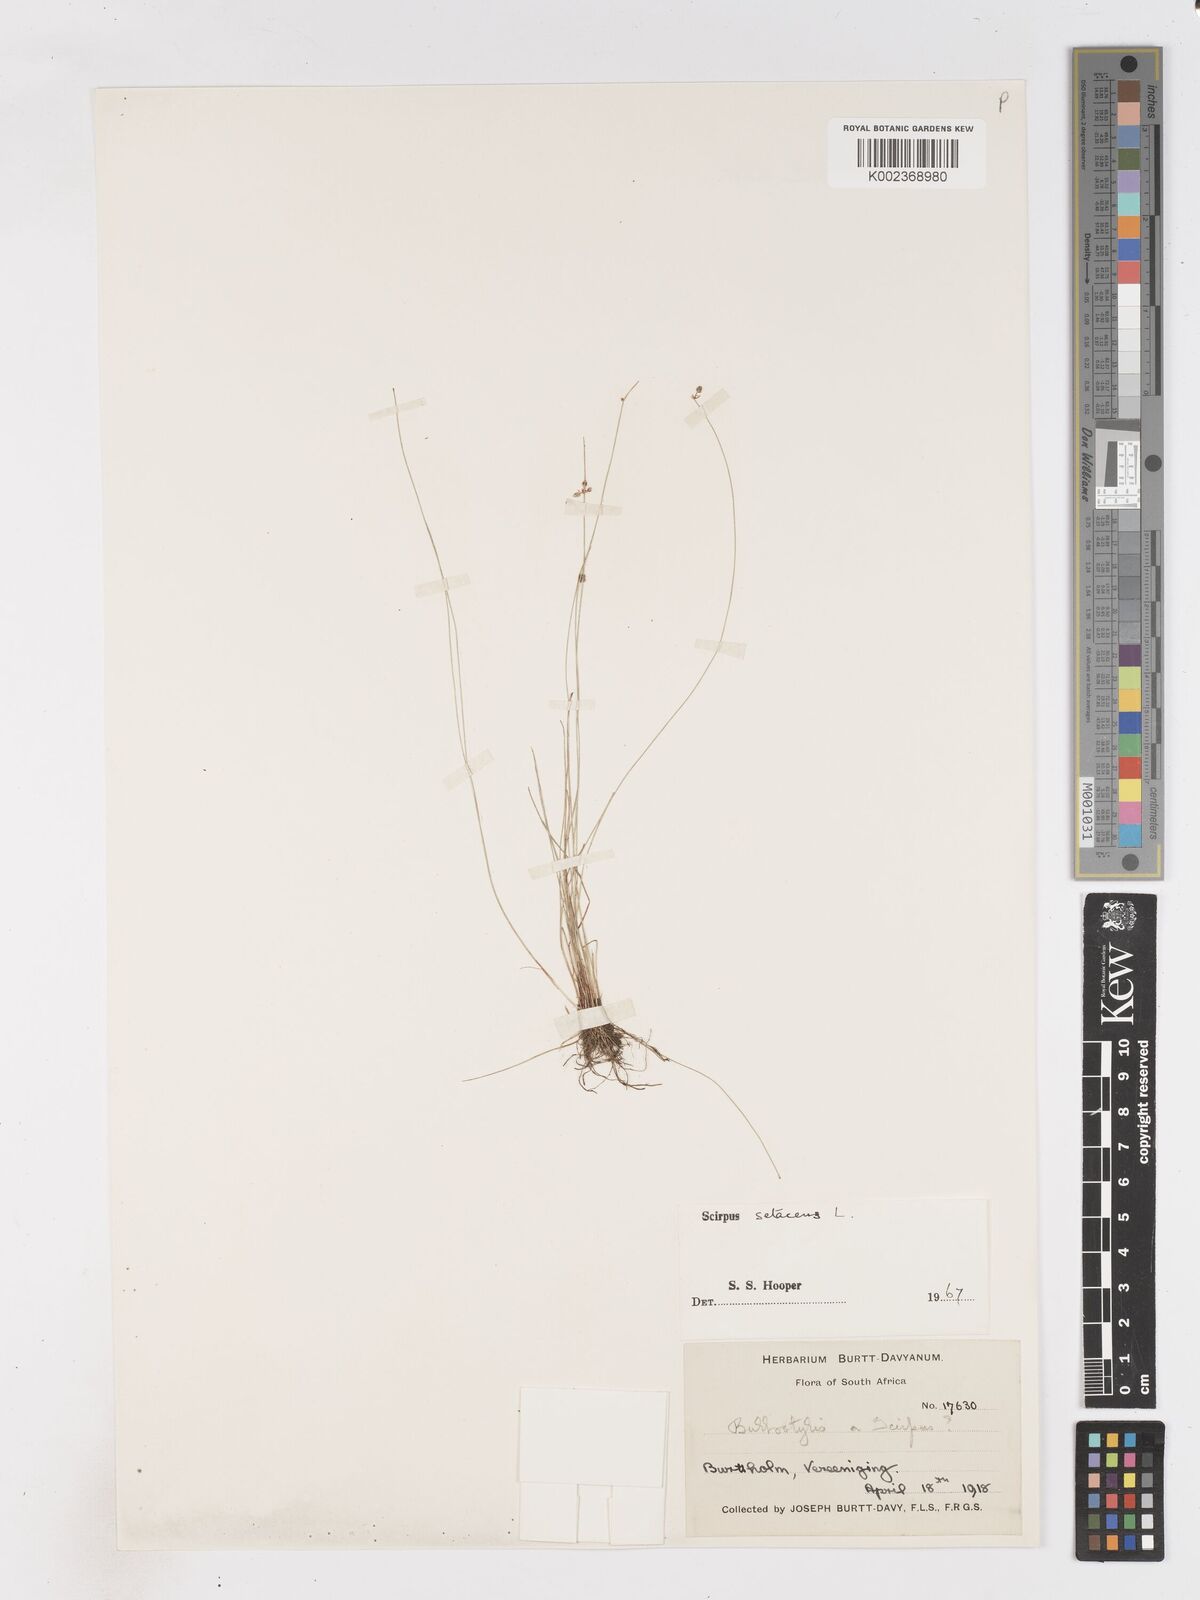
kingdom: Plantae
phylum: Tracheophyta
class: Liliopsida
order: Poales
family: Cyperaceae
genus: Isolepis
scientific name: Isolepis setacea
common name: Bristle club-rush
